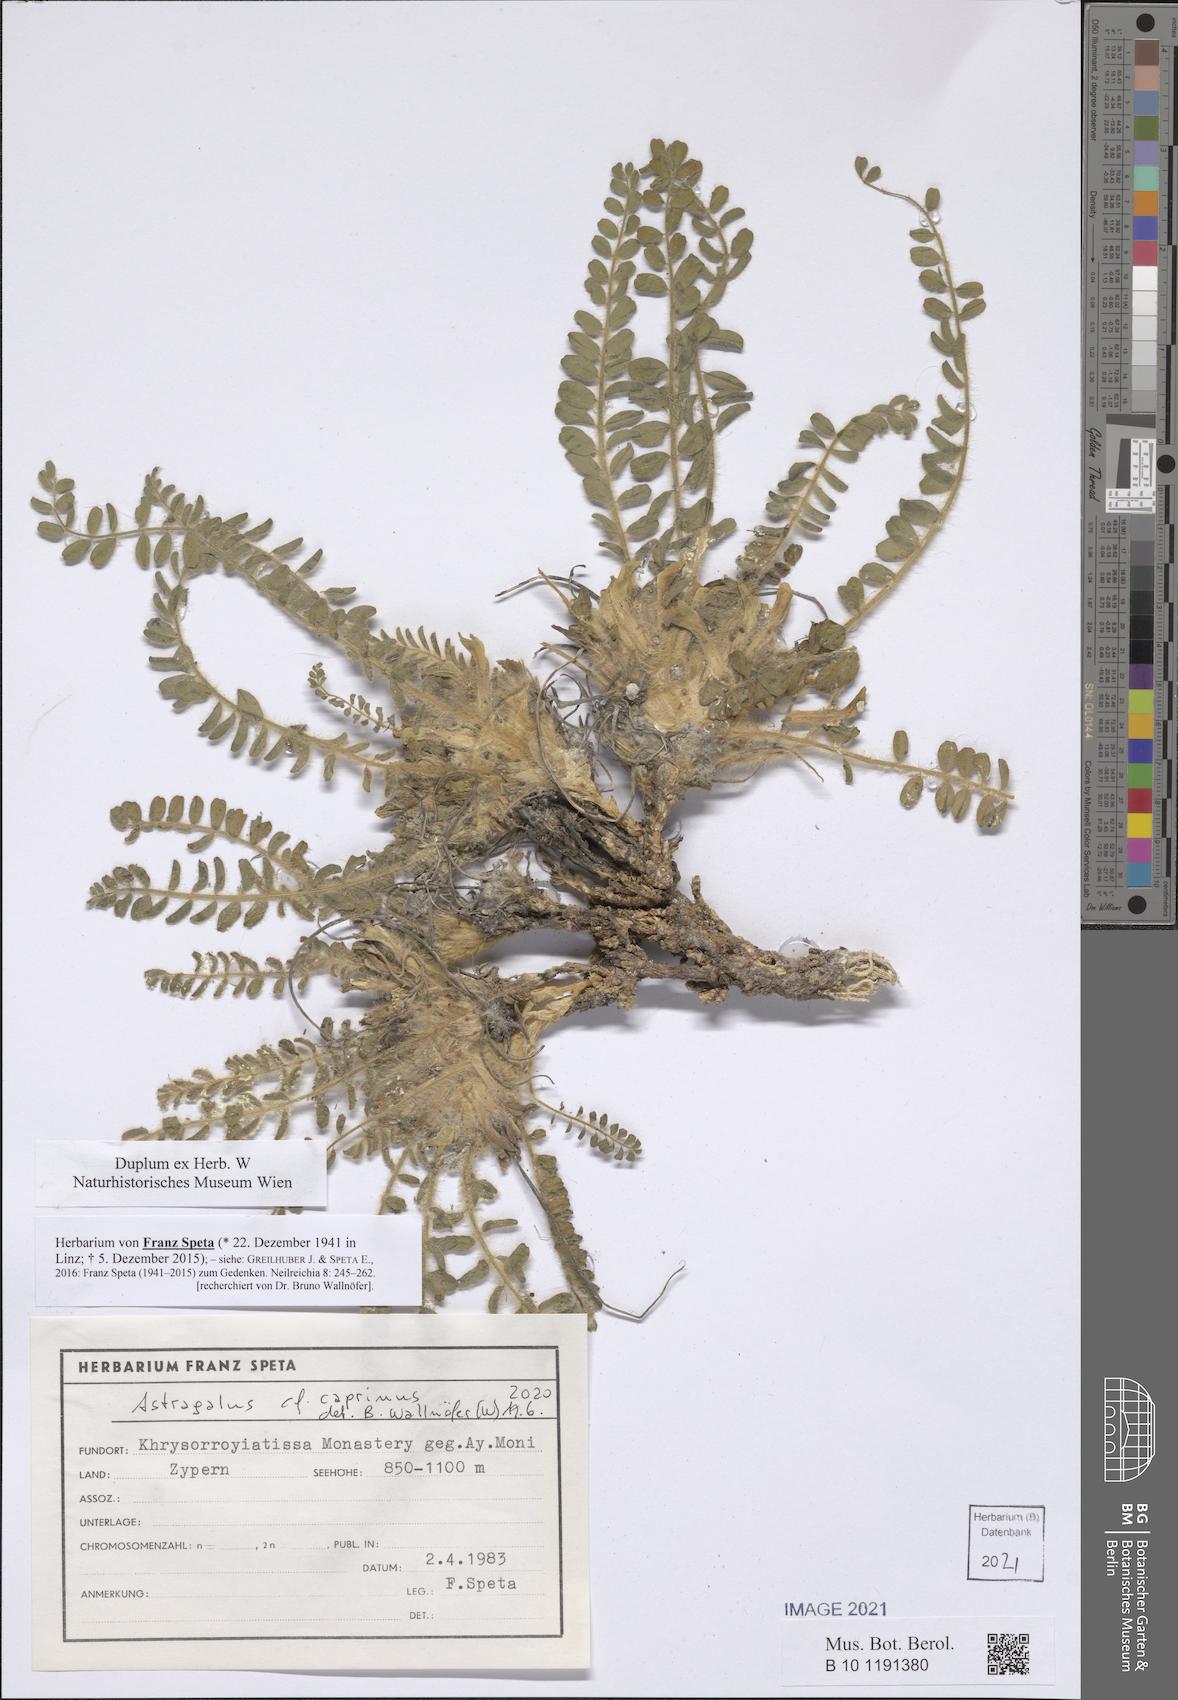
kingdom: Plantae
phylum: Tracheophyta
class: Magnoliopsida
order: Fabales
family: Fabaceae
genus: Astragalus
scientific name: Astragalus caprinus
